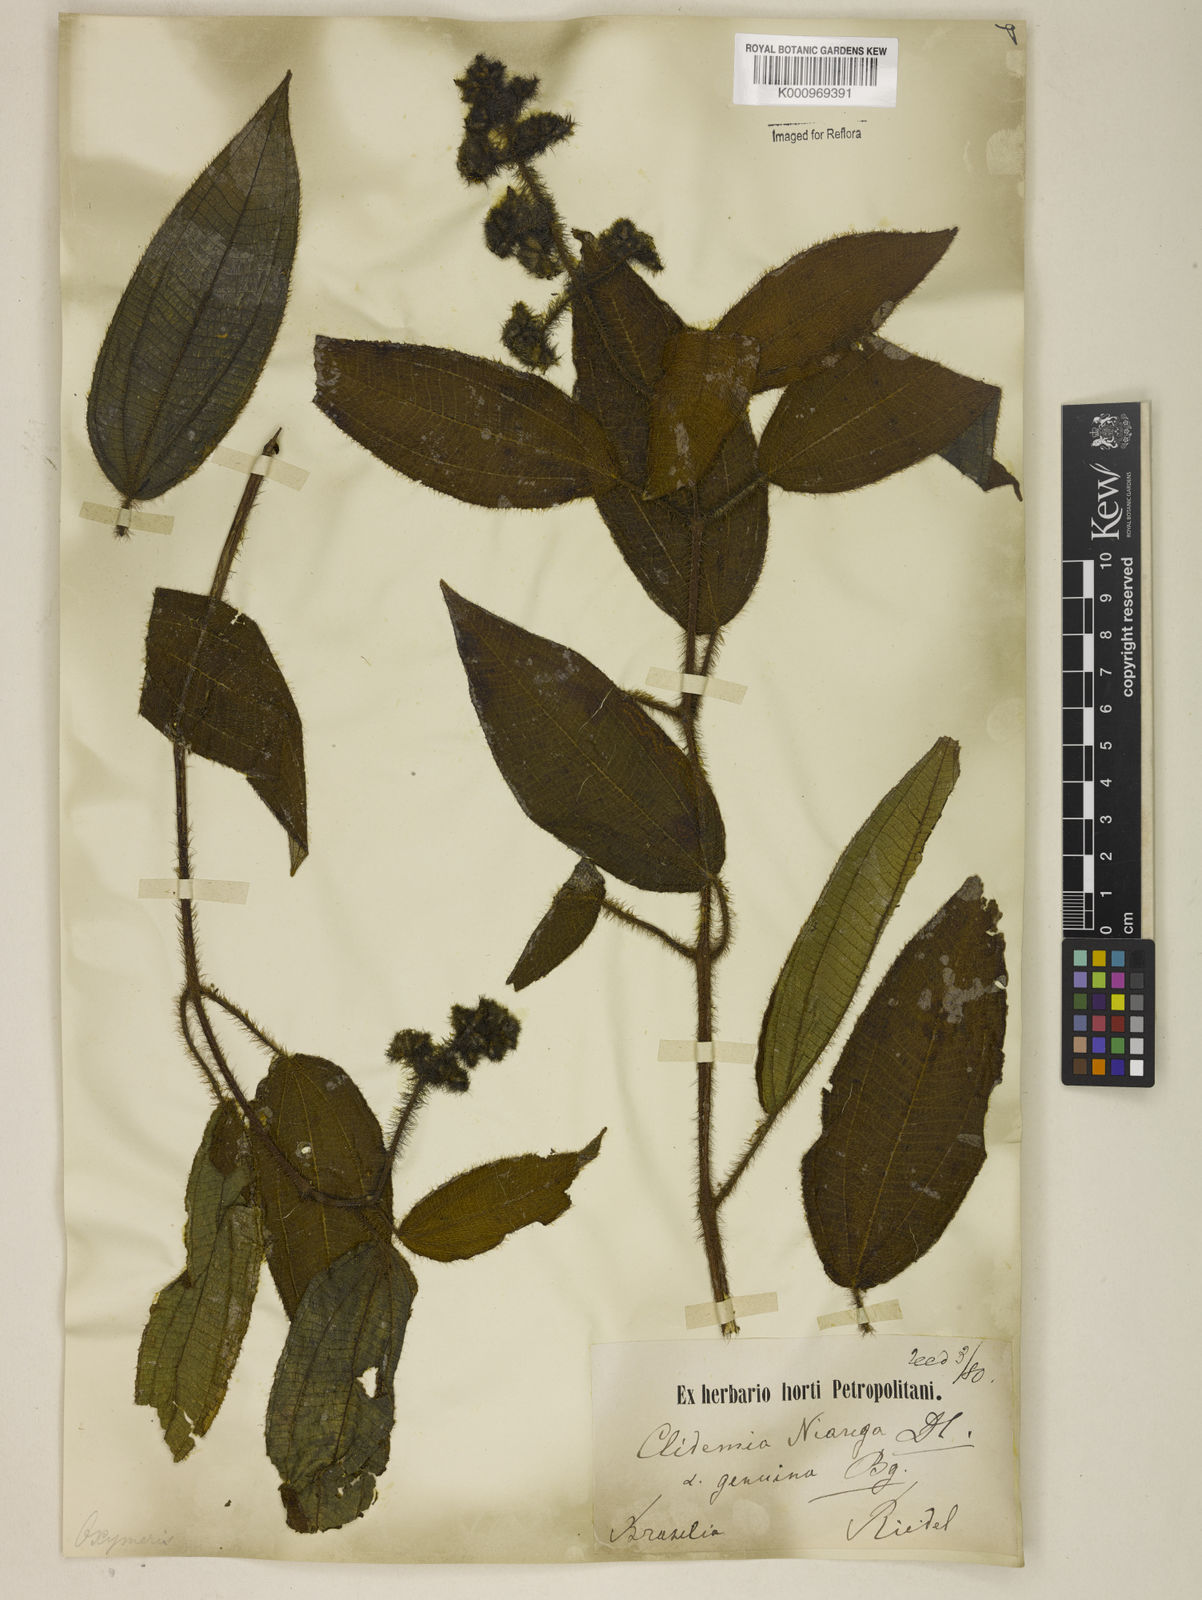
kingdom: Plantae
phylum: Tracheophyta
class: Magnoliopsida
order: Myrtales
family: Melastomataceae
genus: Miconia
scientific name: Miconia nianga
